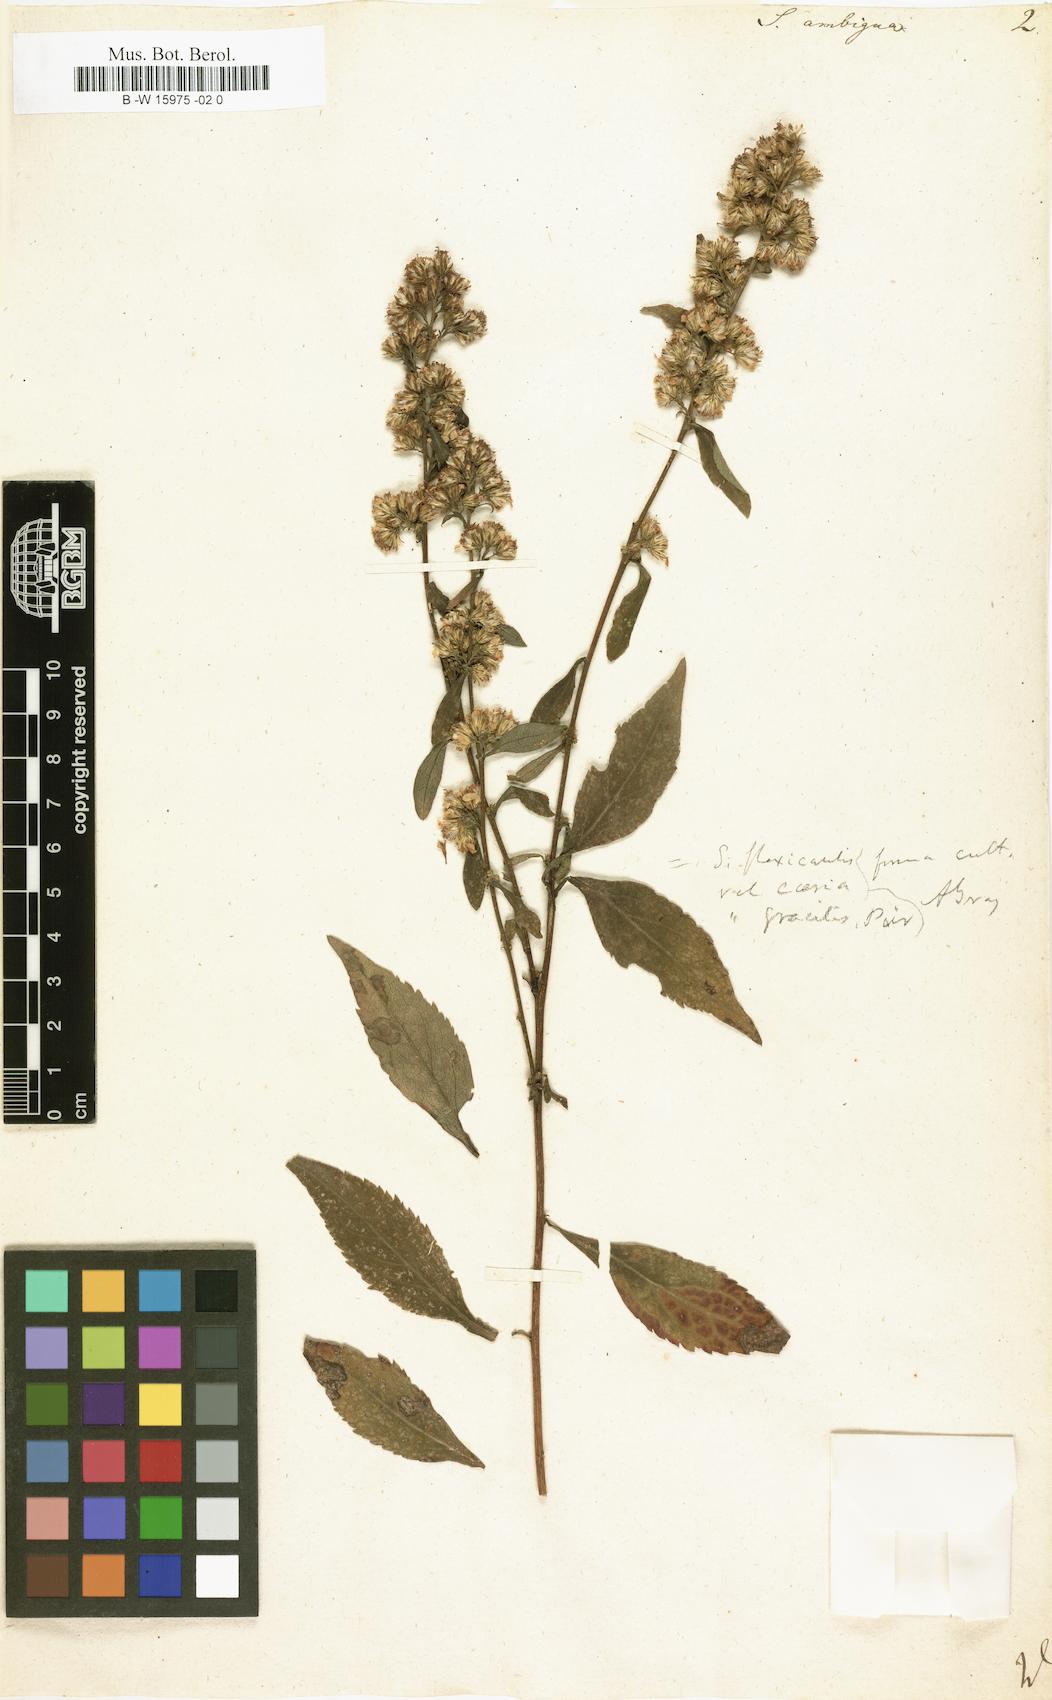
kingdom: Plantae
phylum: Tracheophyta
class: Magnoliopsida
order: Asterales
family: Asteraceae
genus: Solidago
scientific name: Solidago virgaurea
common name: Goldenrod
